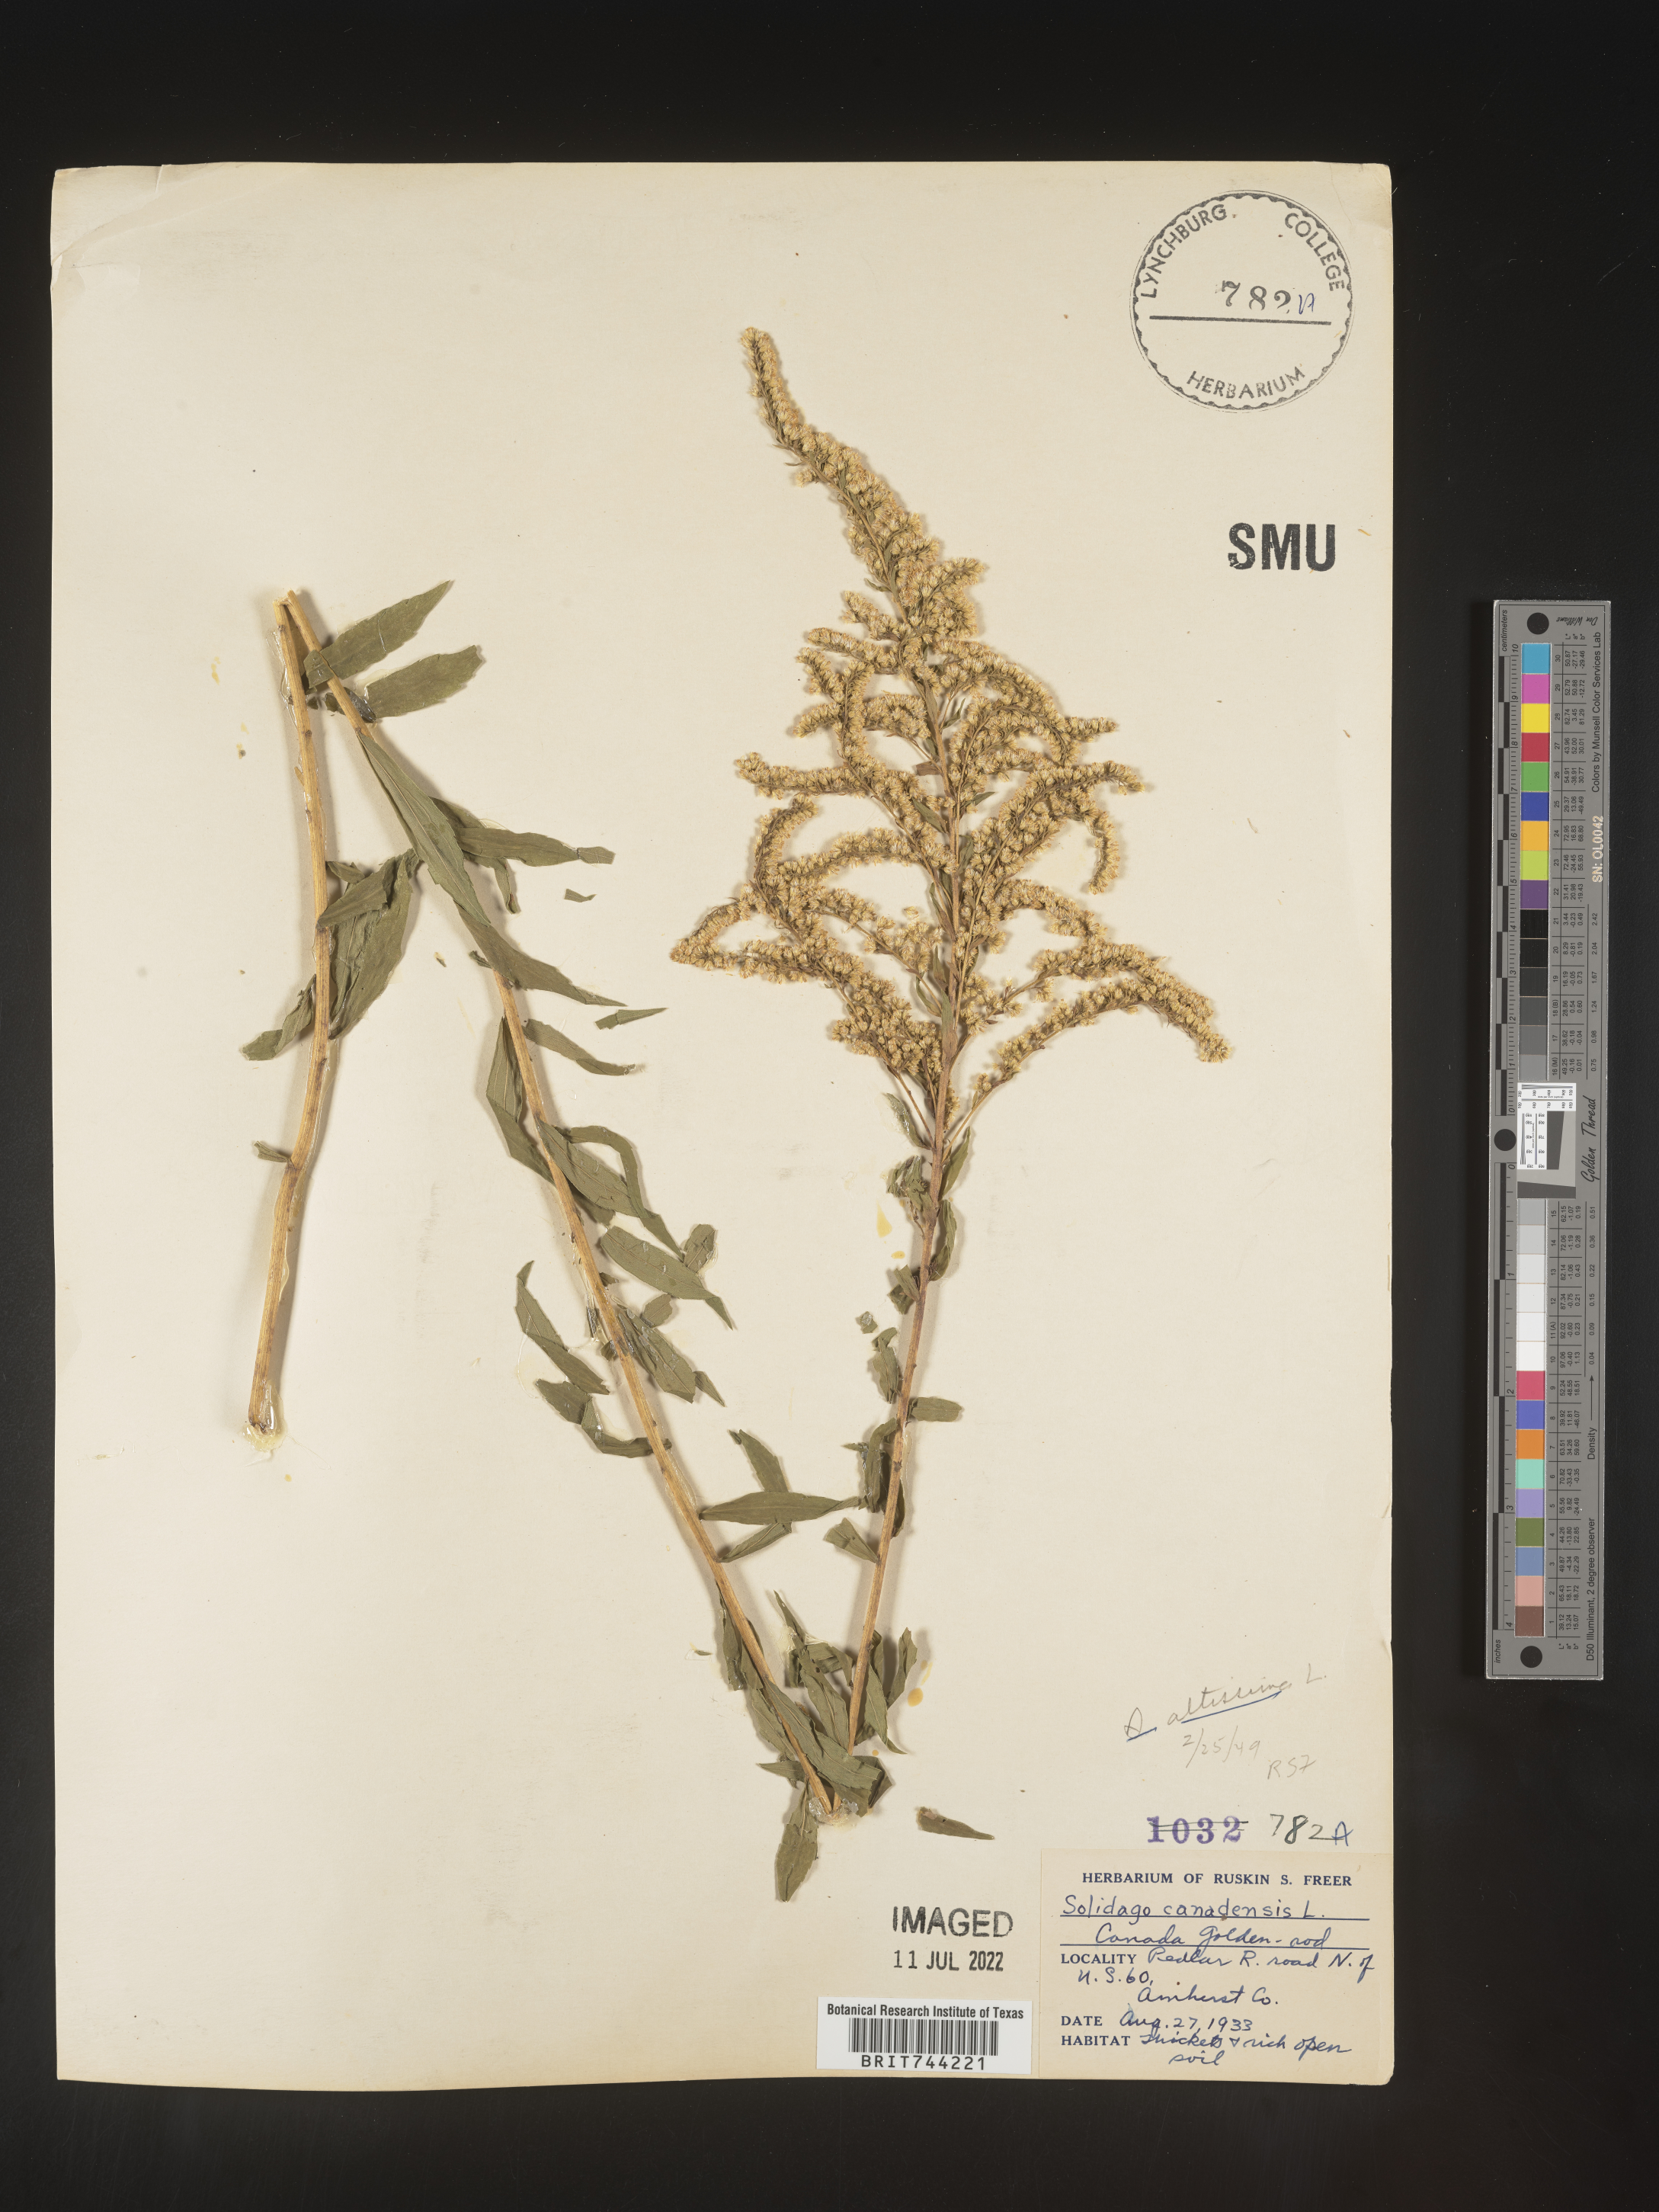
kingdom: Plantae
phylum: Tracheophyta
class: Magnoliopsida
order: Asterales
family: Asteraceae
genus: Solidago
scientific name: Solidago altissima
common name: Late goldenrod
